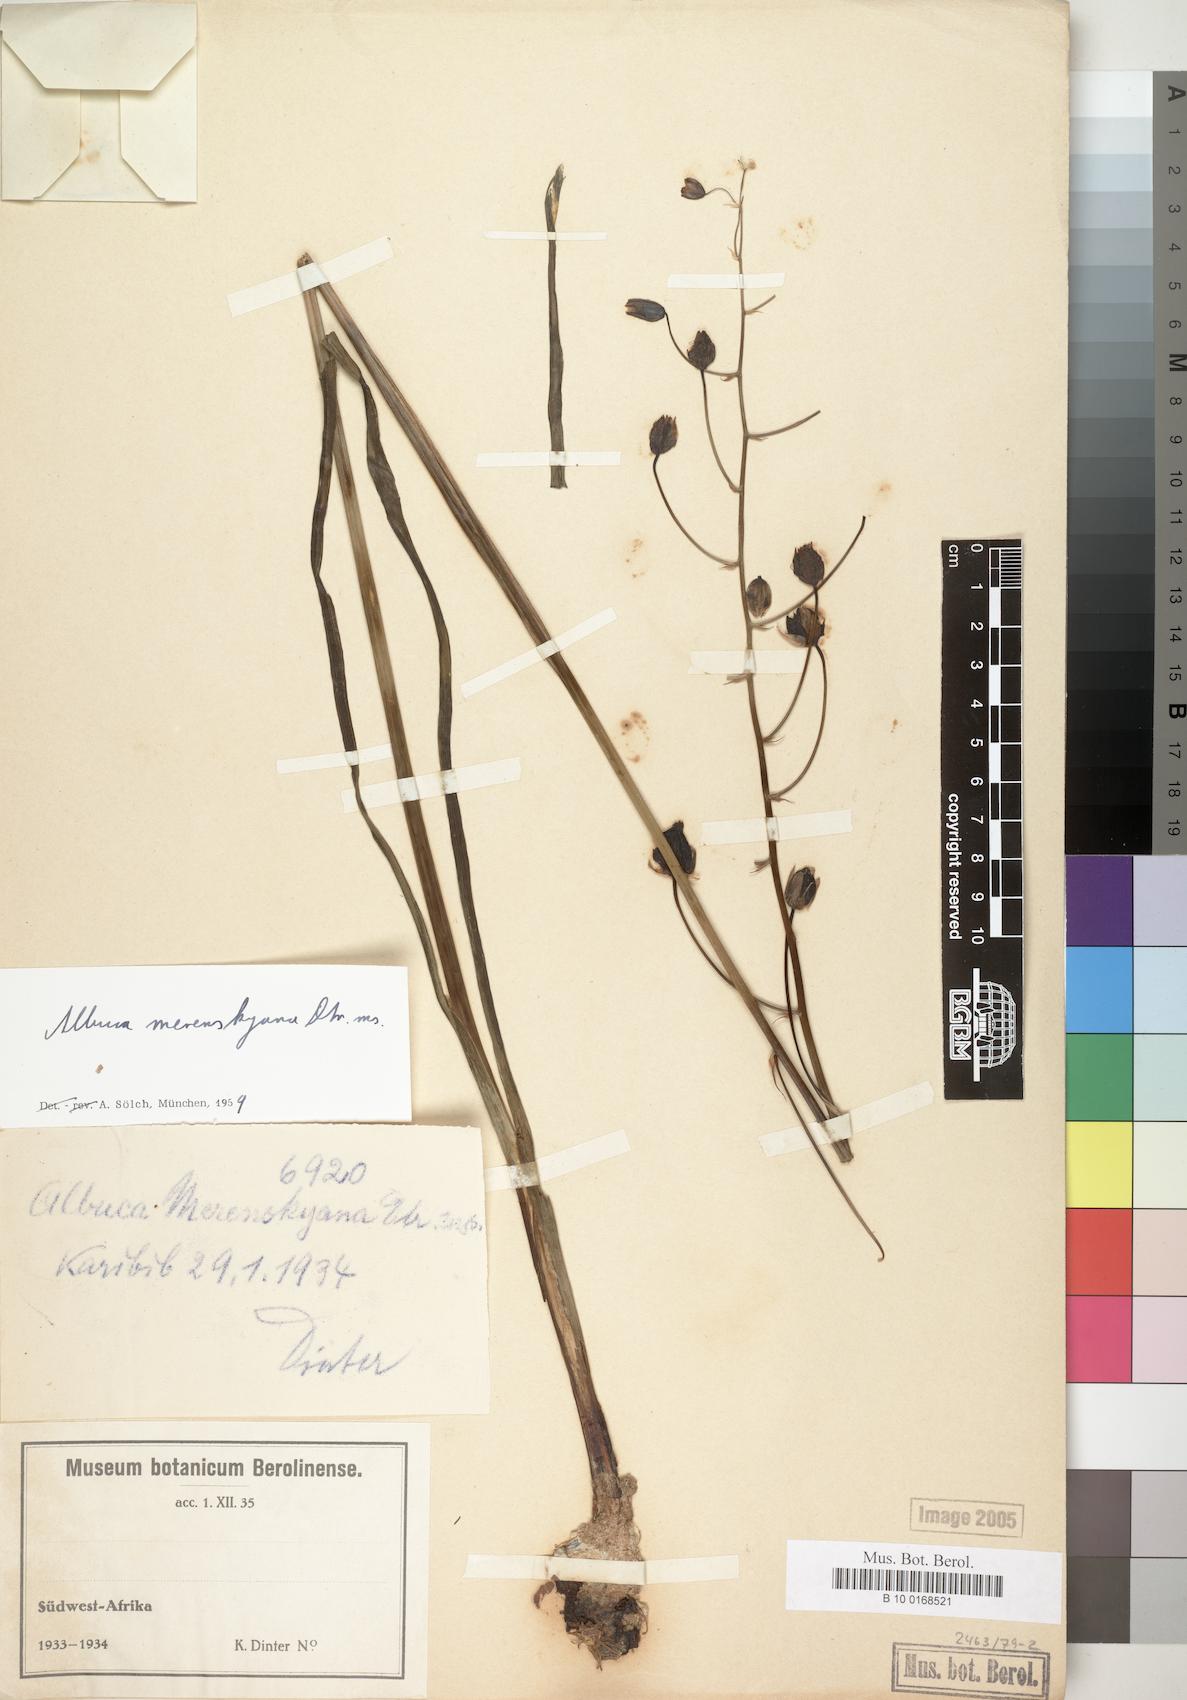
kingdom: Plantae
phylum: Tracheophyta
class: Liliopsida
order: Asparagales
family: Asparagaceae
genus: Albuca
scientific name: Albuca
